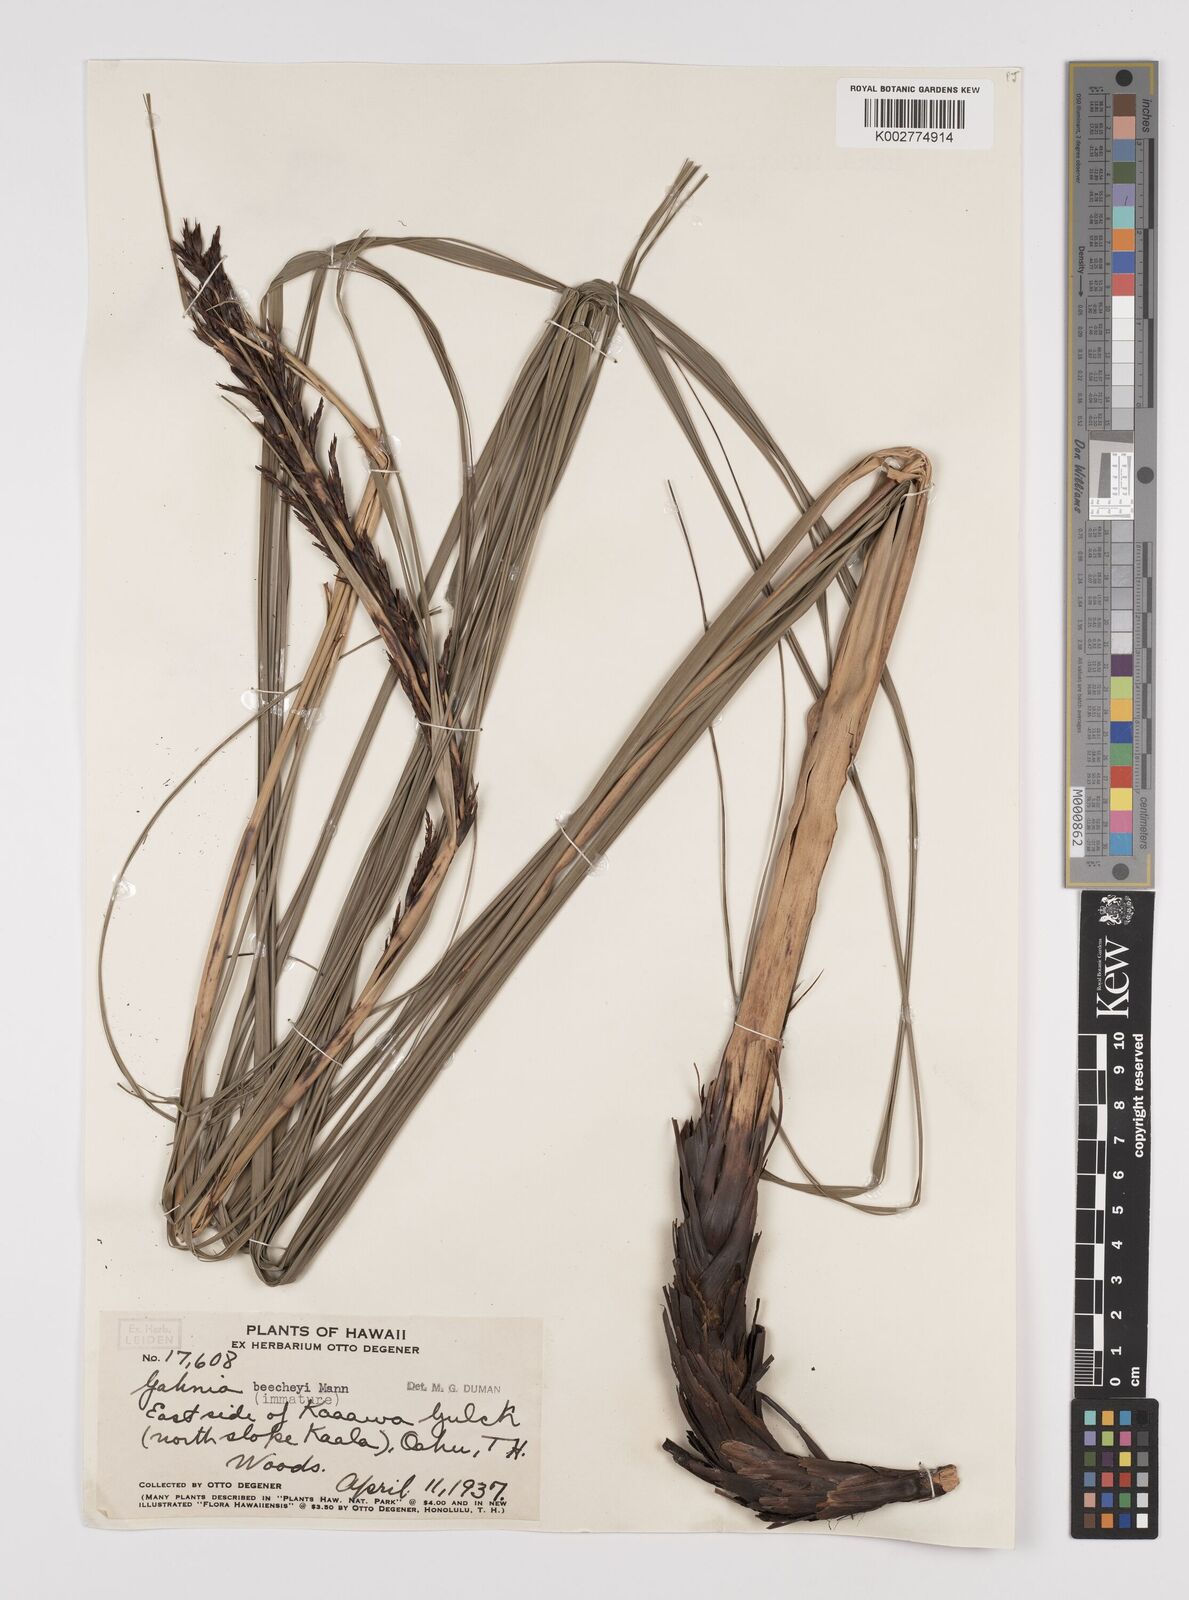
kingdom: Plantae
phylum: Tracheophyta
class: Liliopsida
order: Poales
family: Cyperaceae
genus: Gahnia
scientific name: Gahnia beecheyi
